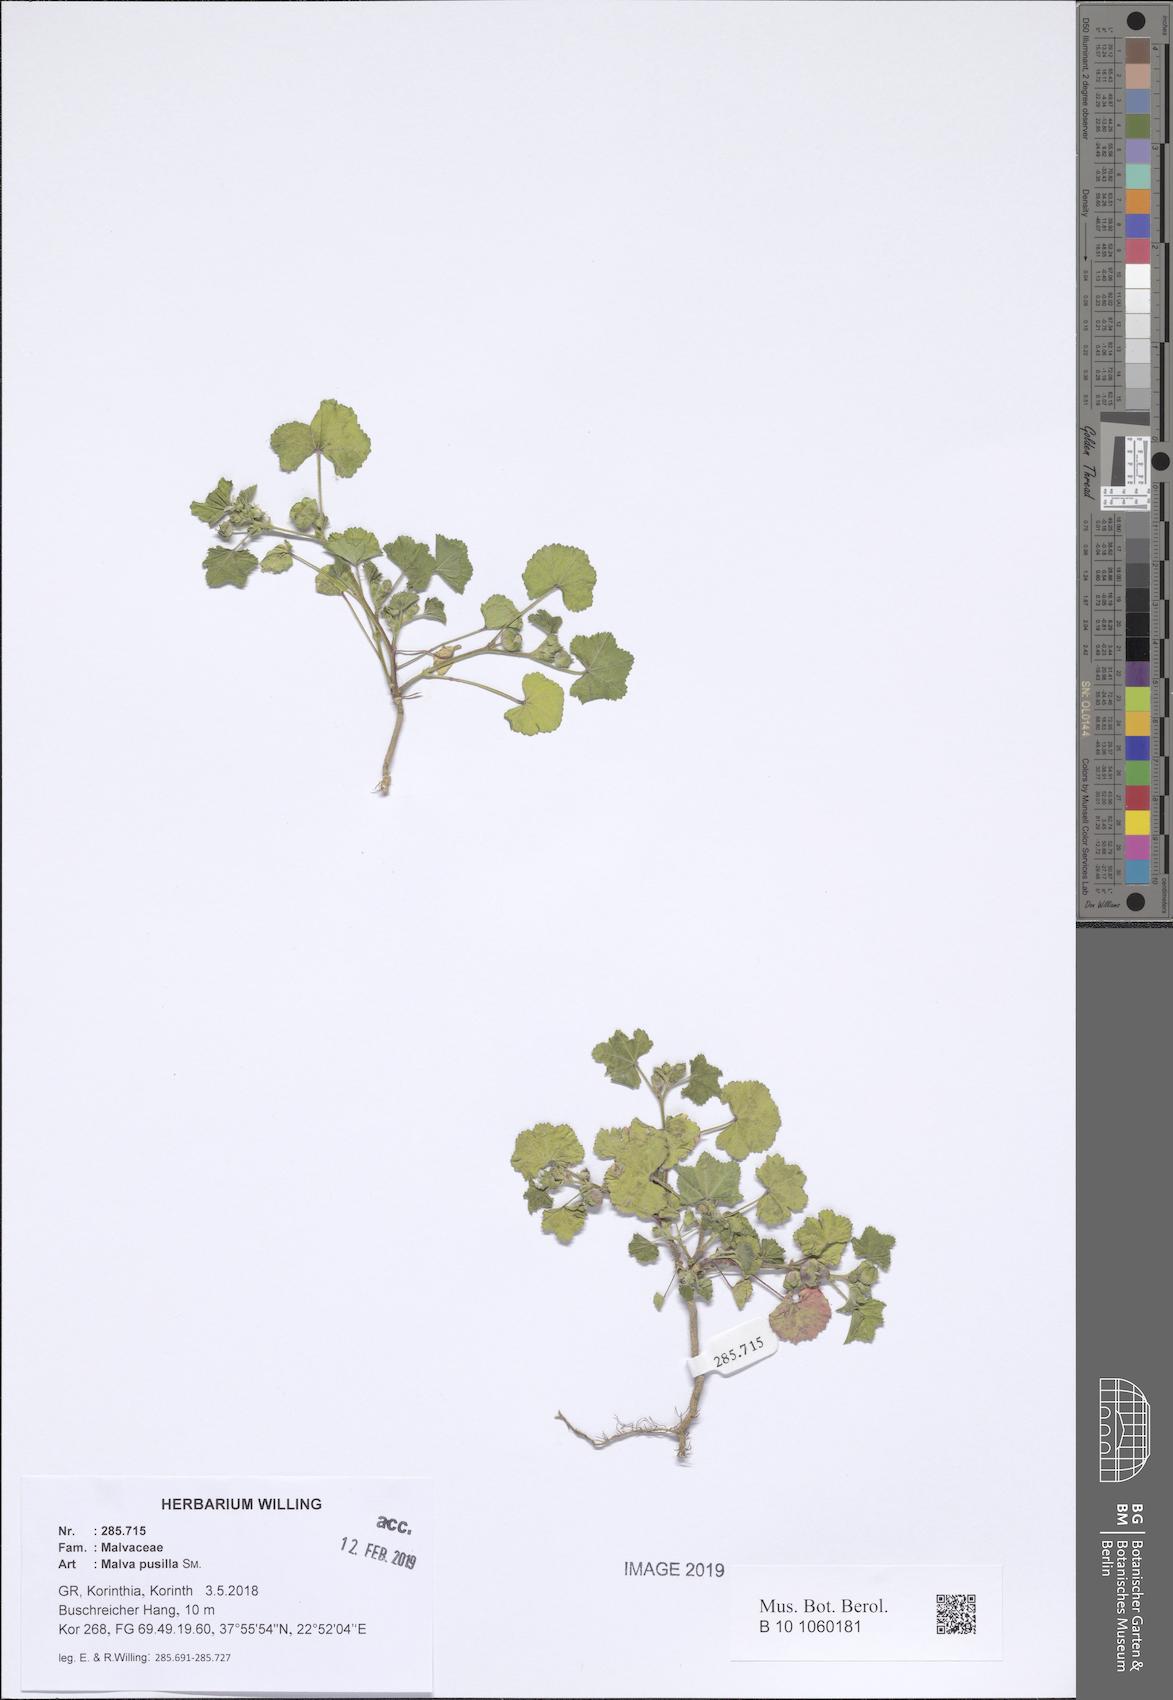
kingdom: Plantae
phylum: Tracheophyta
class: Magnoliopsida
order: Malvales
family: Malvaceae
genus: Malva
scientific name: Malva parviflora
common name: Least mallow
